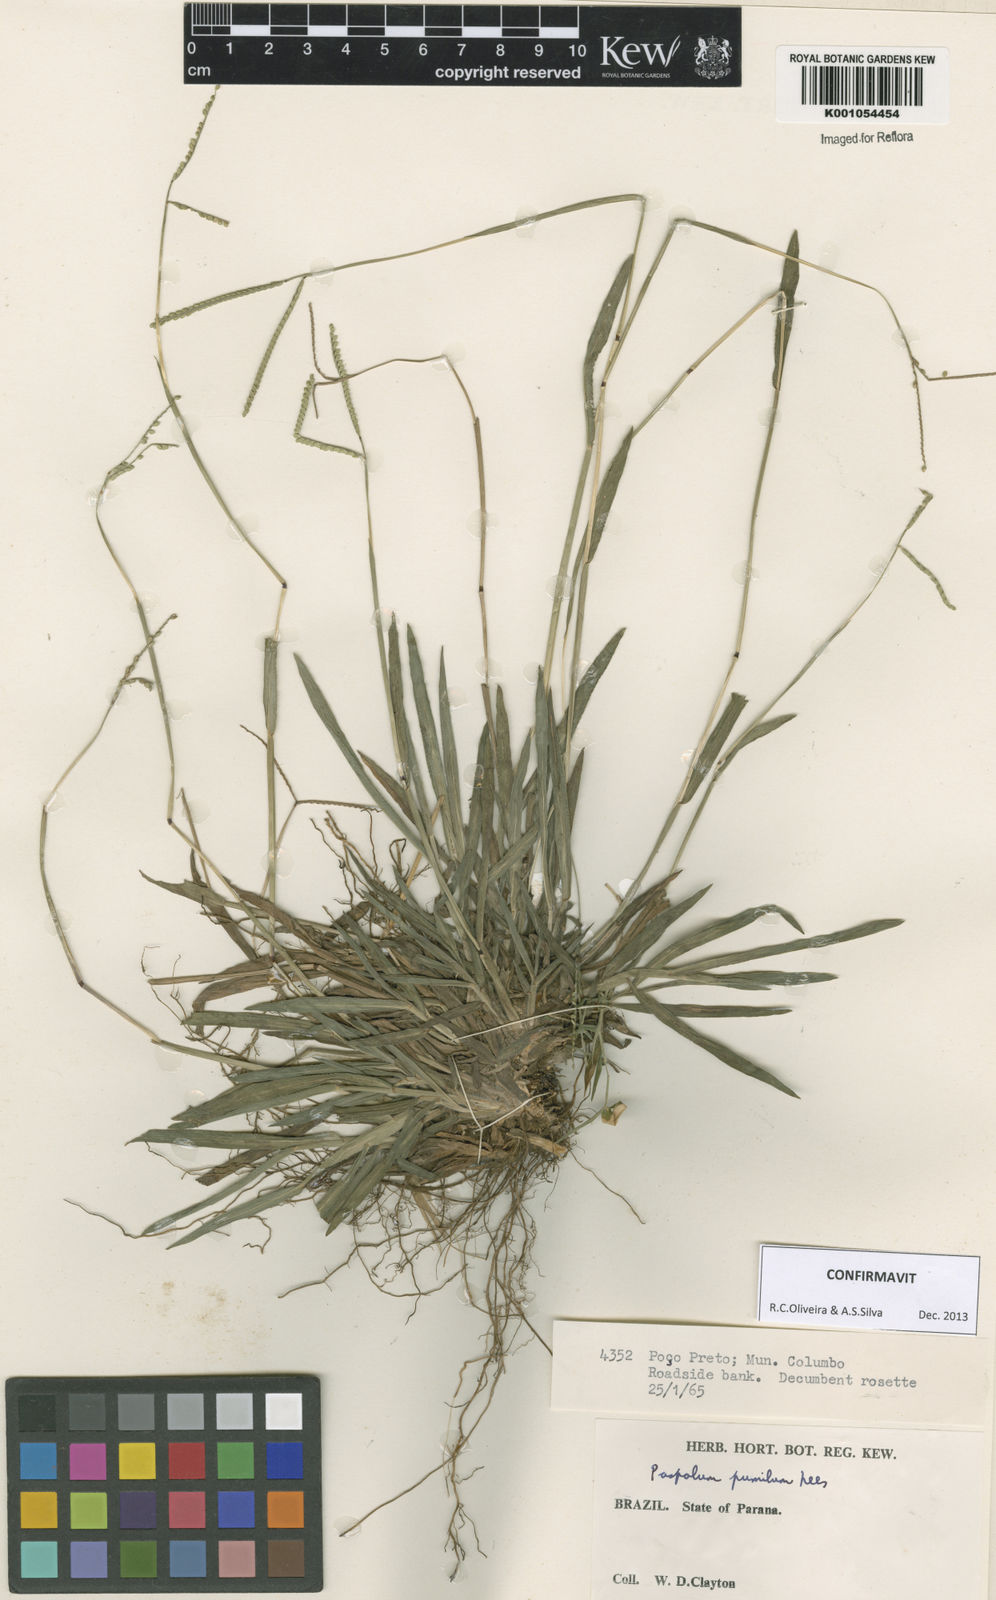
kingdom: Plantae
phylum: Tracheophyta
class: Liliopsida
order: Poales
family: Poaceae
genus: Paspalum
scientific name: Paspalum pumilum
